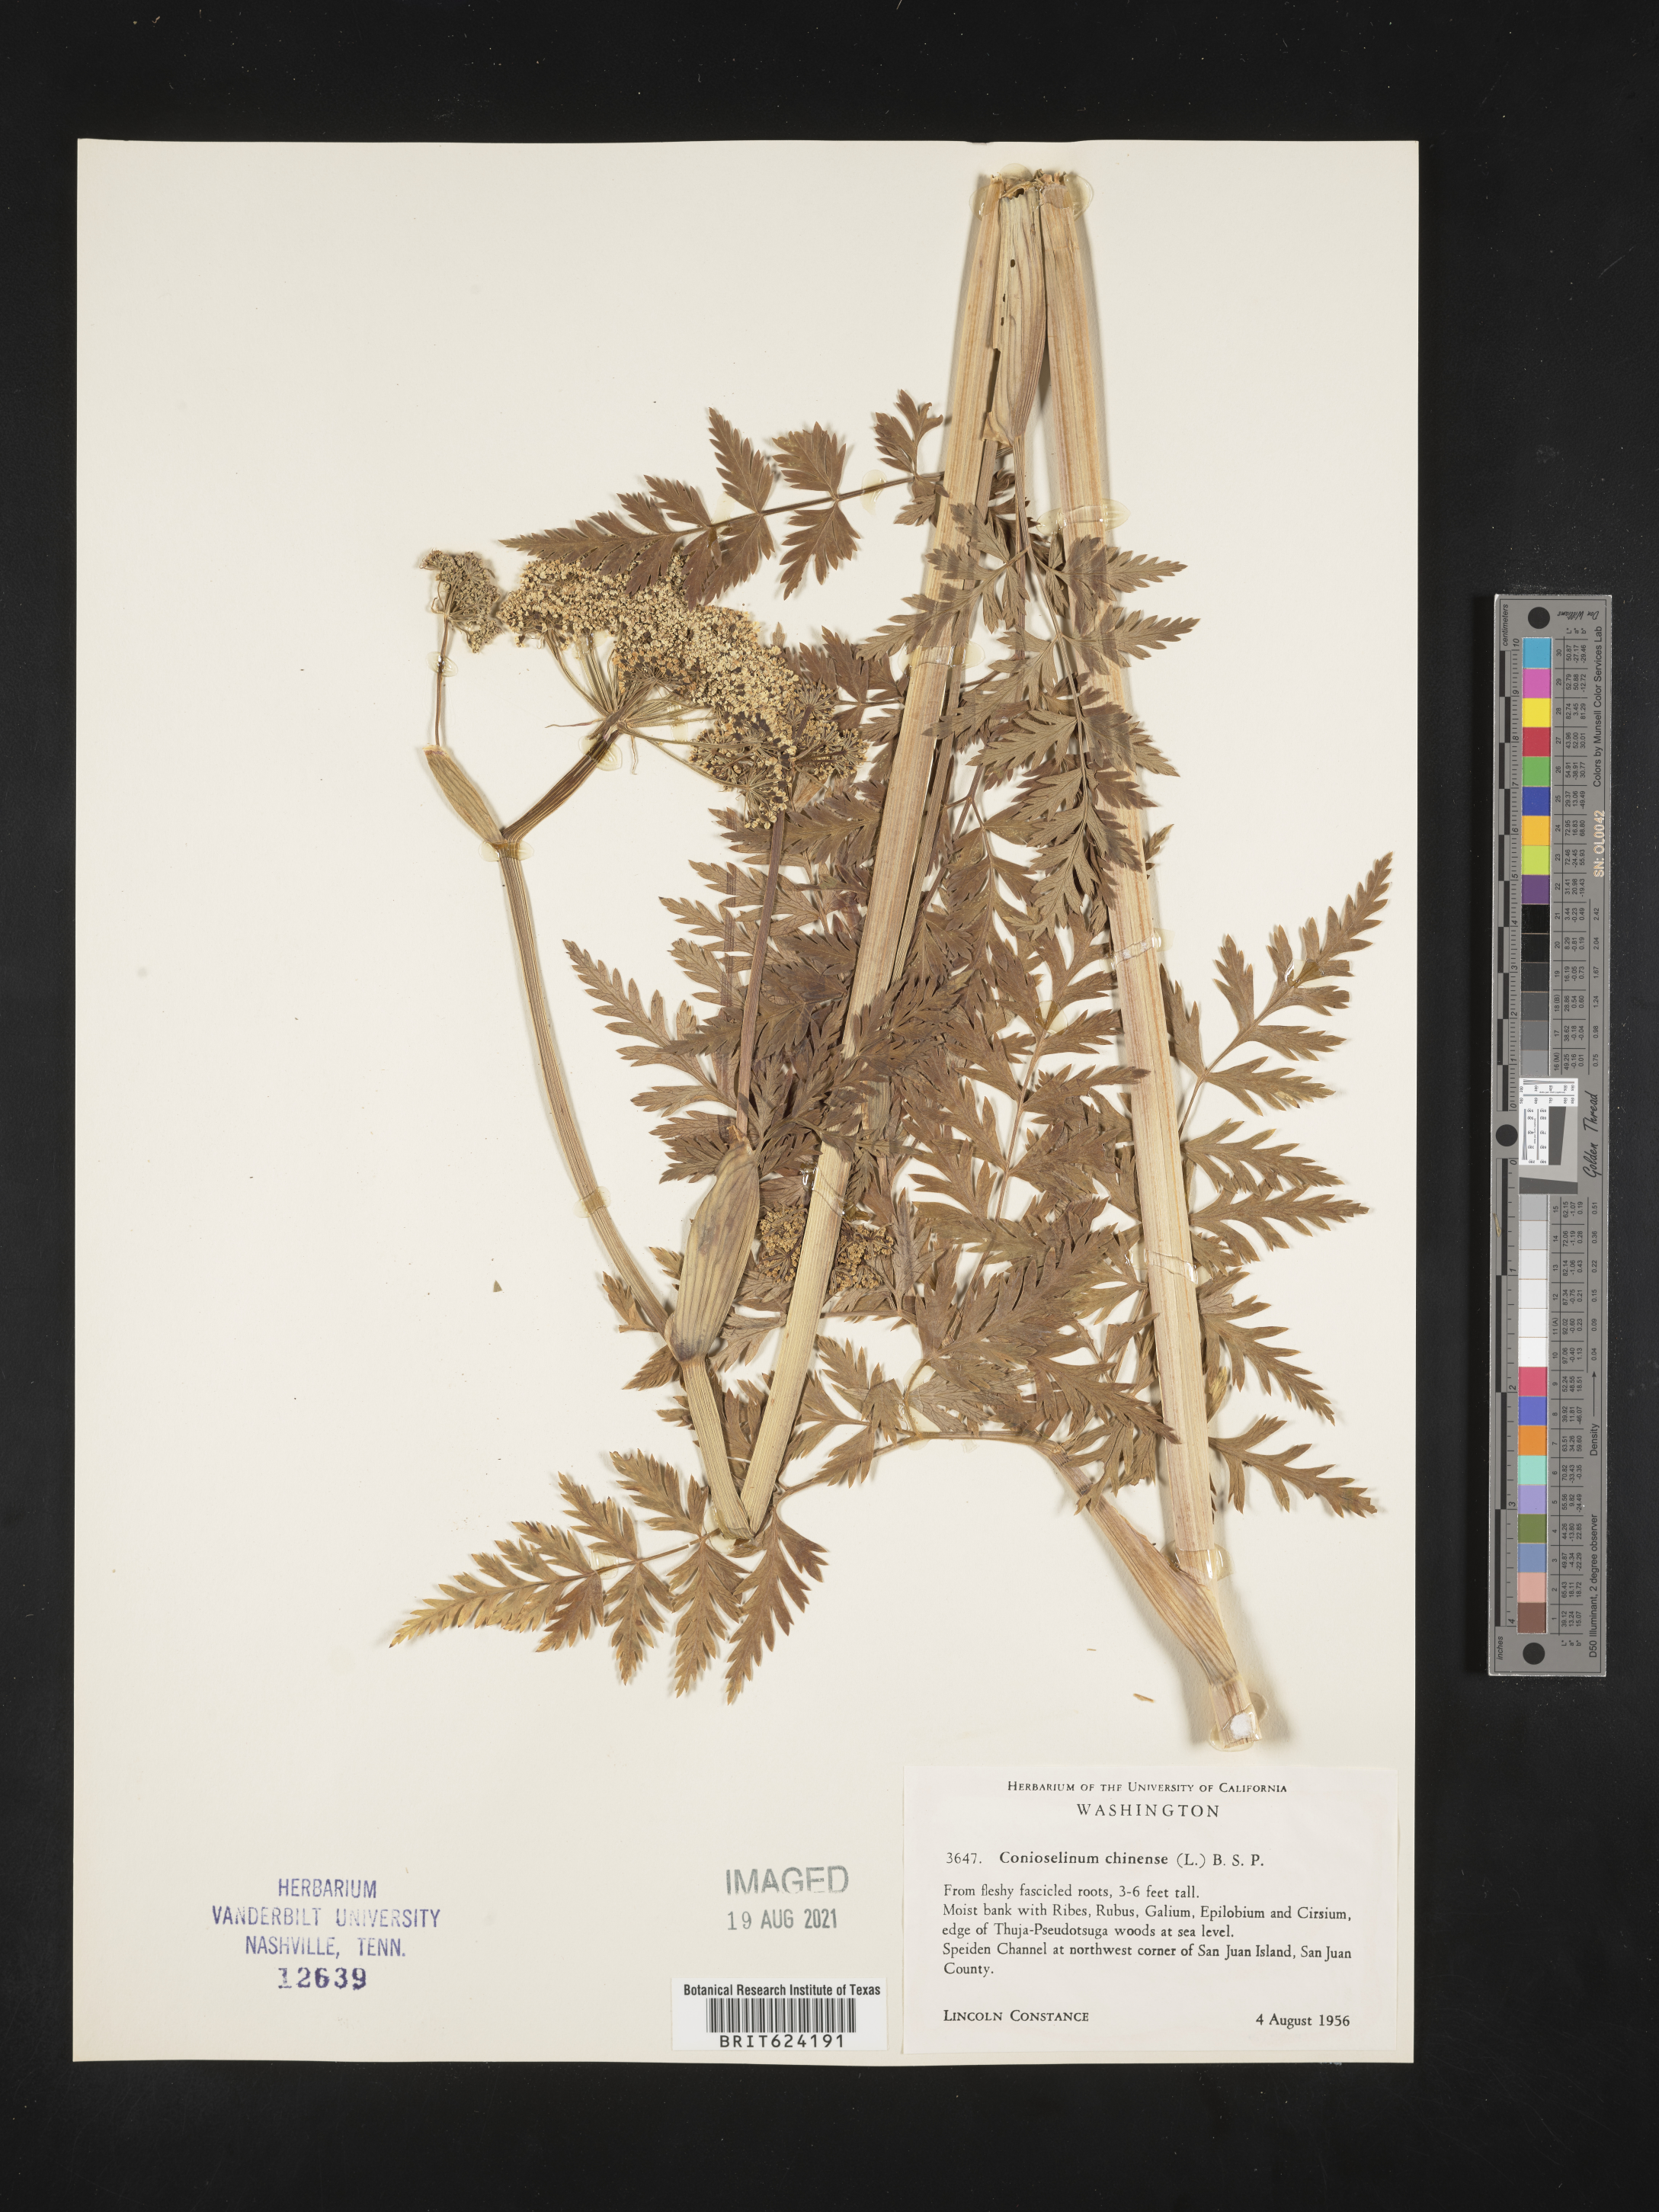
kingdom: Plantae
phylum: Tracheophyta
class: Magnoliopsida
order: Apiales
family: Apiaceae
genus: Conioselinum
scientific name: Conioselinum
